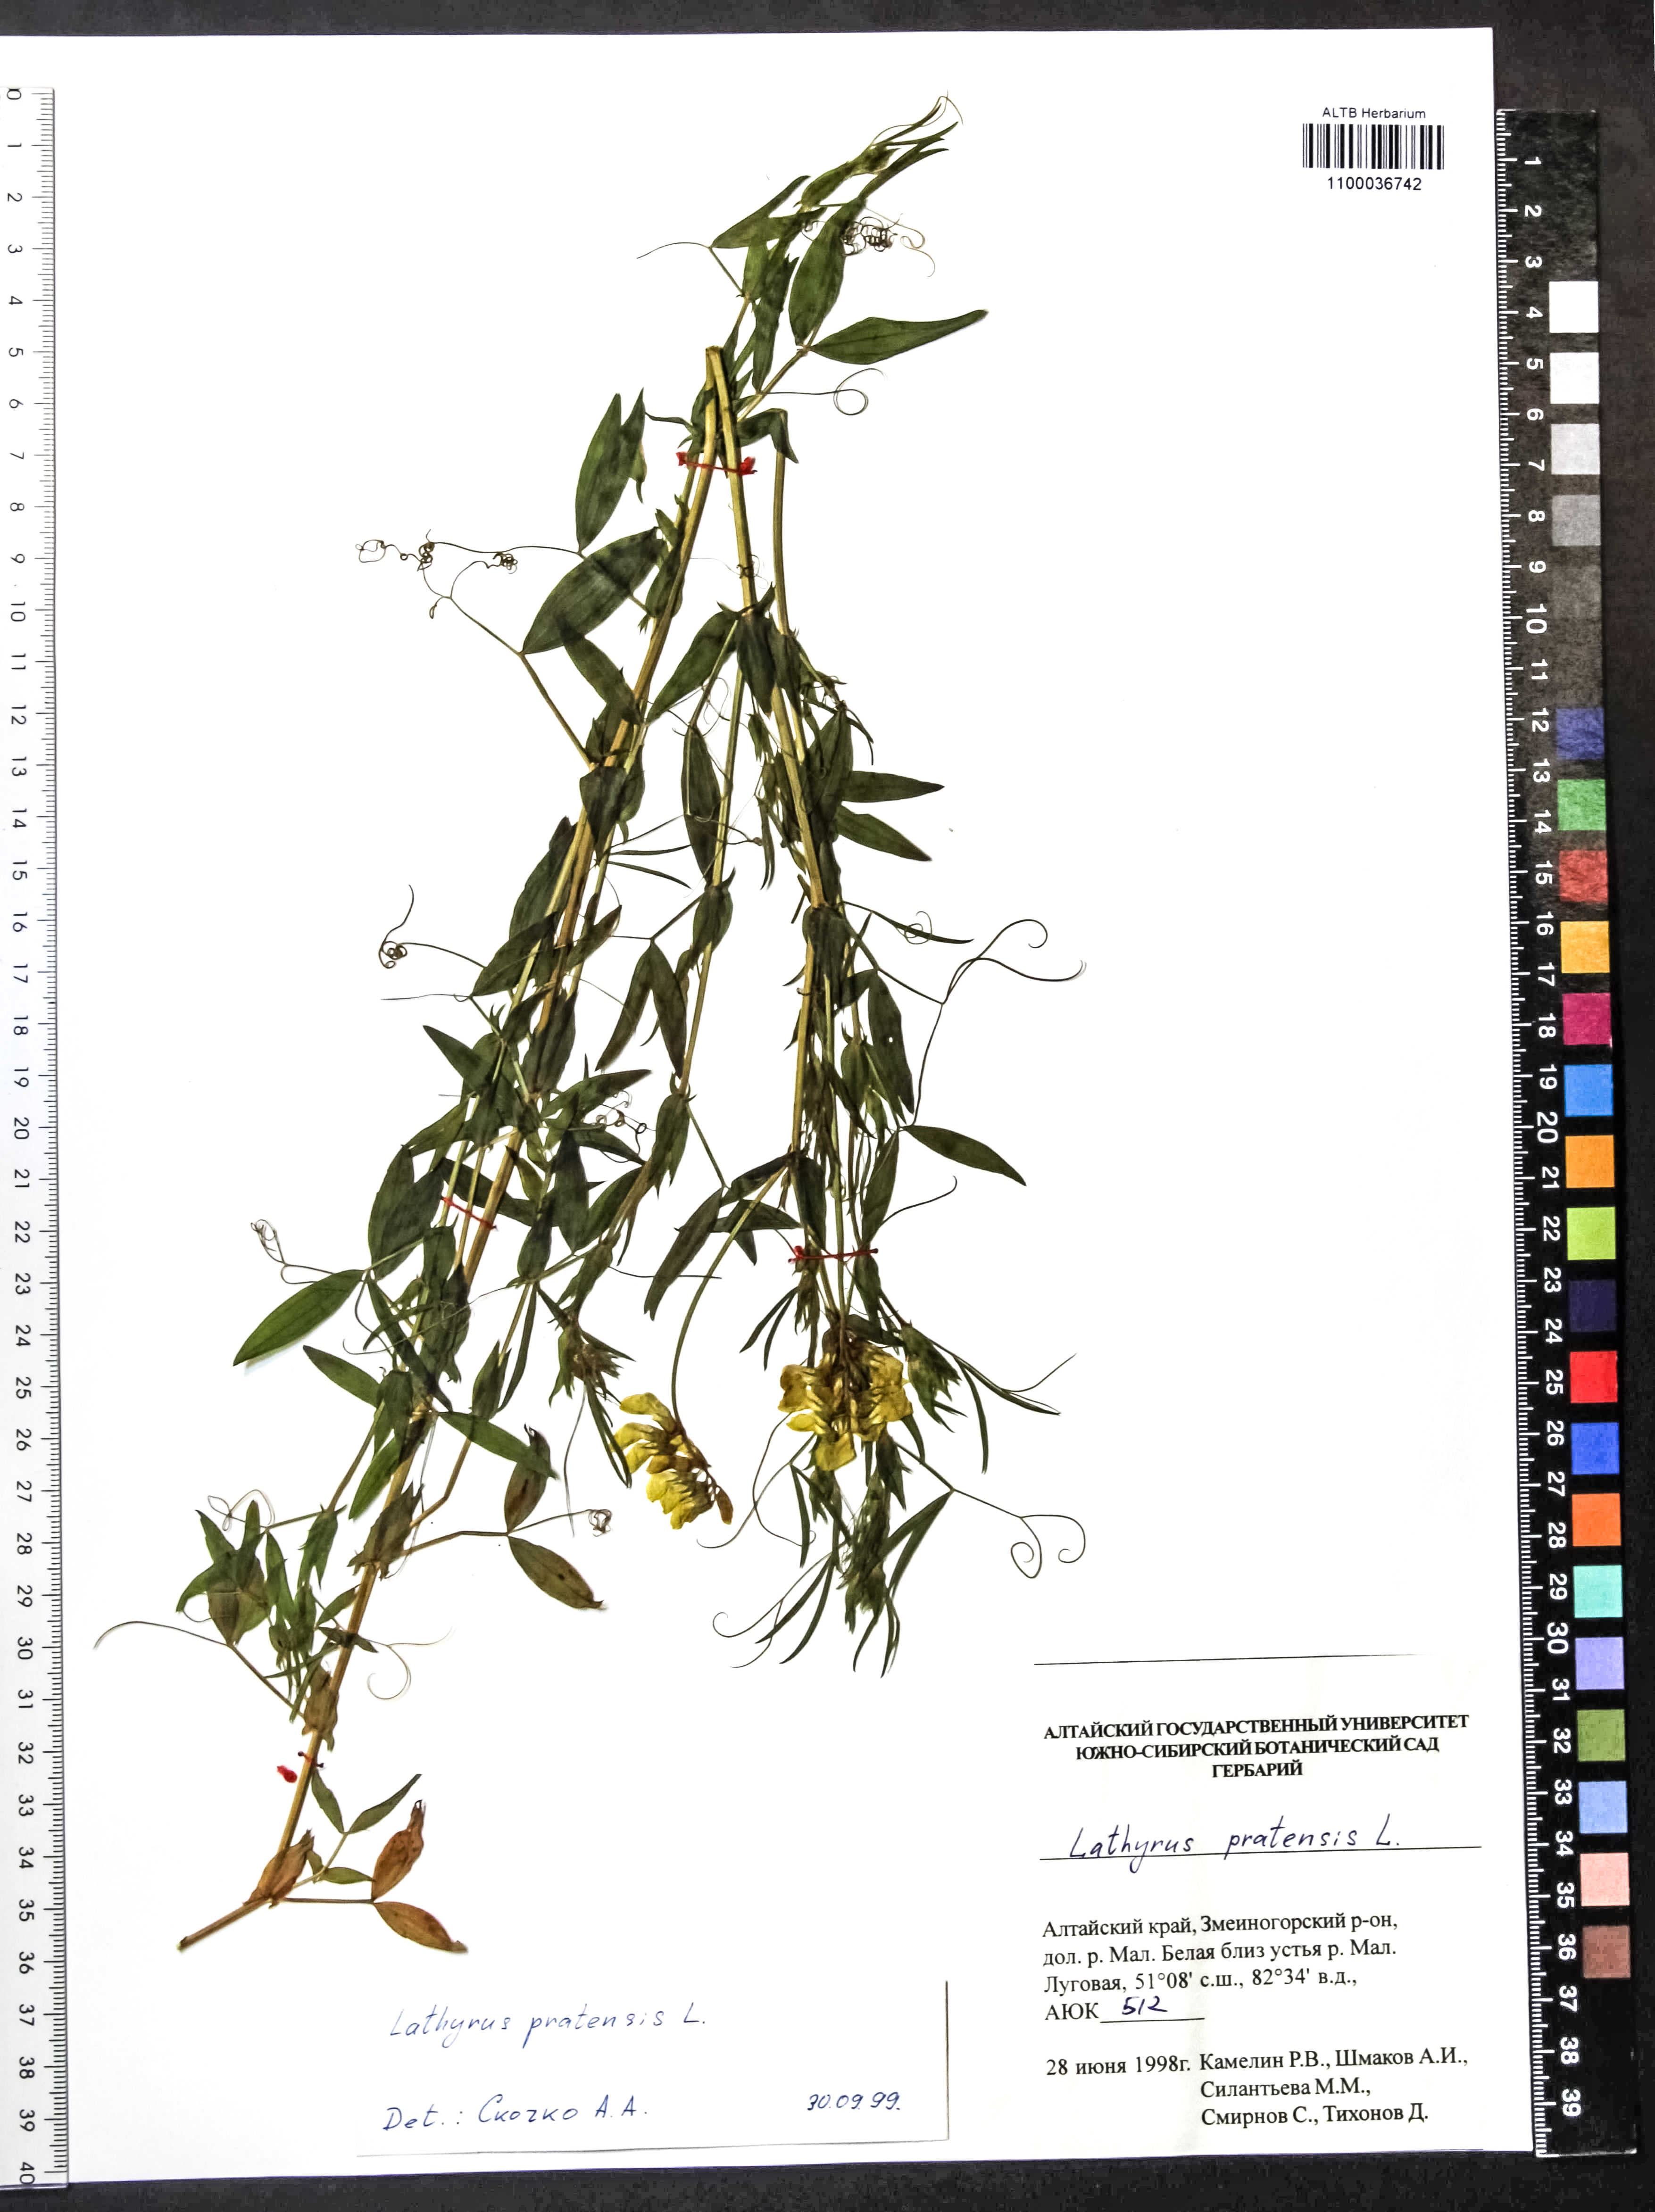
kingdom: Plantae
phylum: Tracheophyta
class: Magnoliopsida
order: Fabales
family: Fabaceae
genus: Lathyrus
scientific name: Lathyrus pratensis
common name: Meadow vetchling
